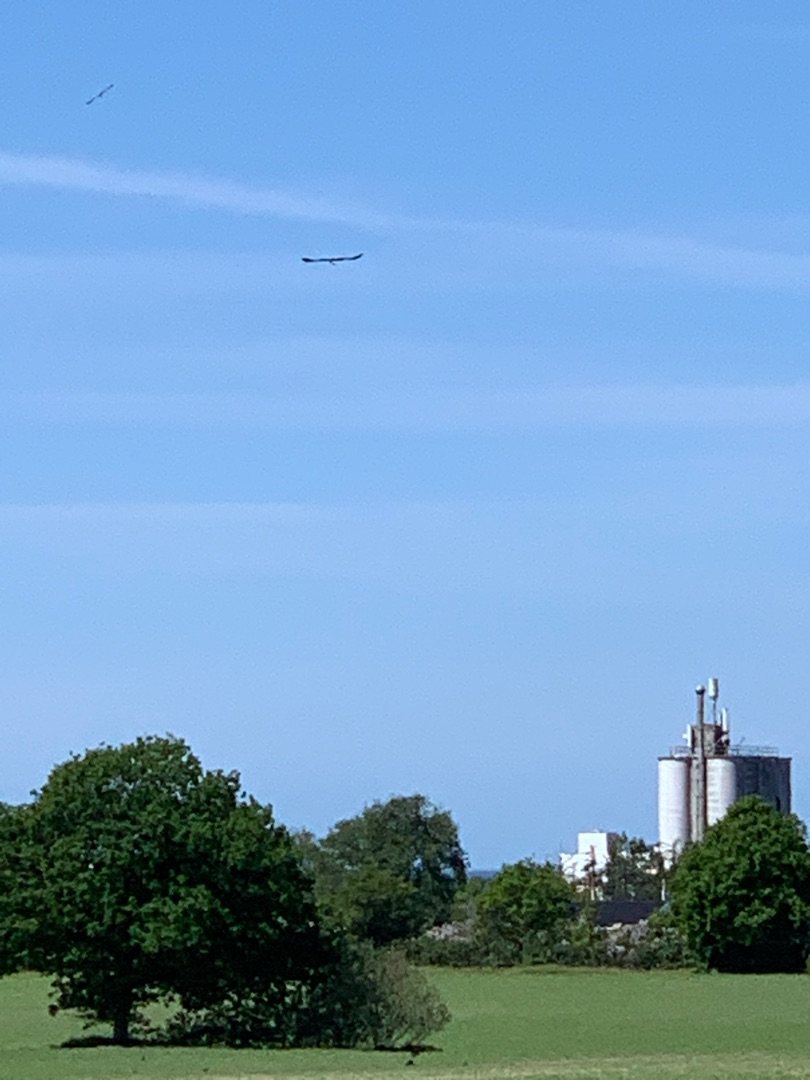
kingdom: Animalia
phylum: Chordata
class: Aves
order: Accipitriformes
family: Accipitridae
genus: Milvus
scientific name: Milvus milvus
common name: Rød glente
